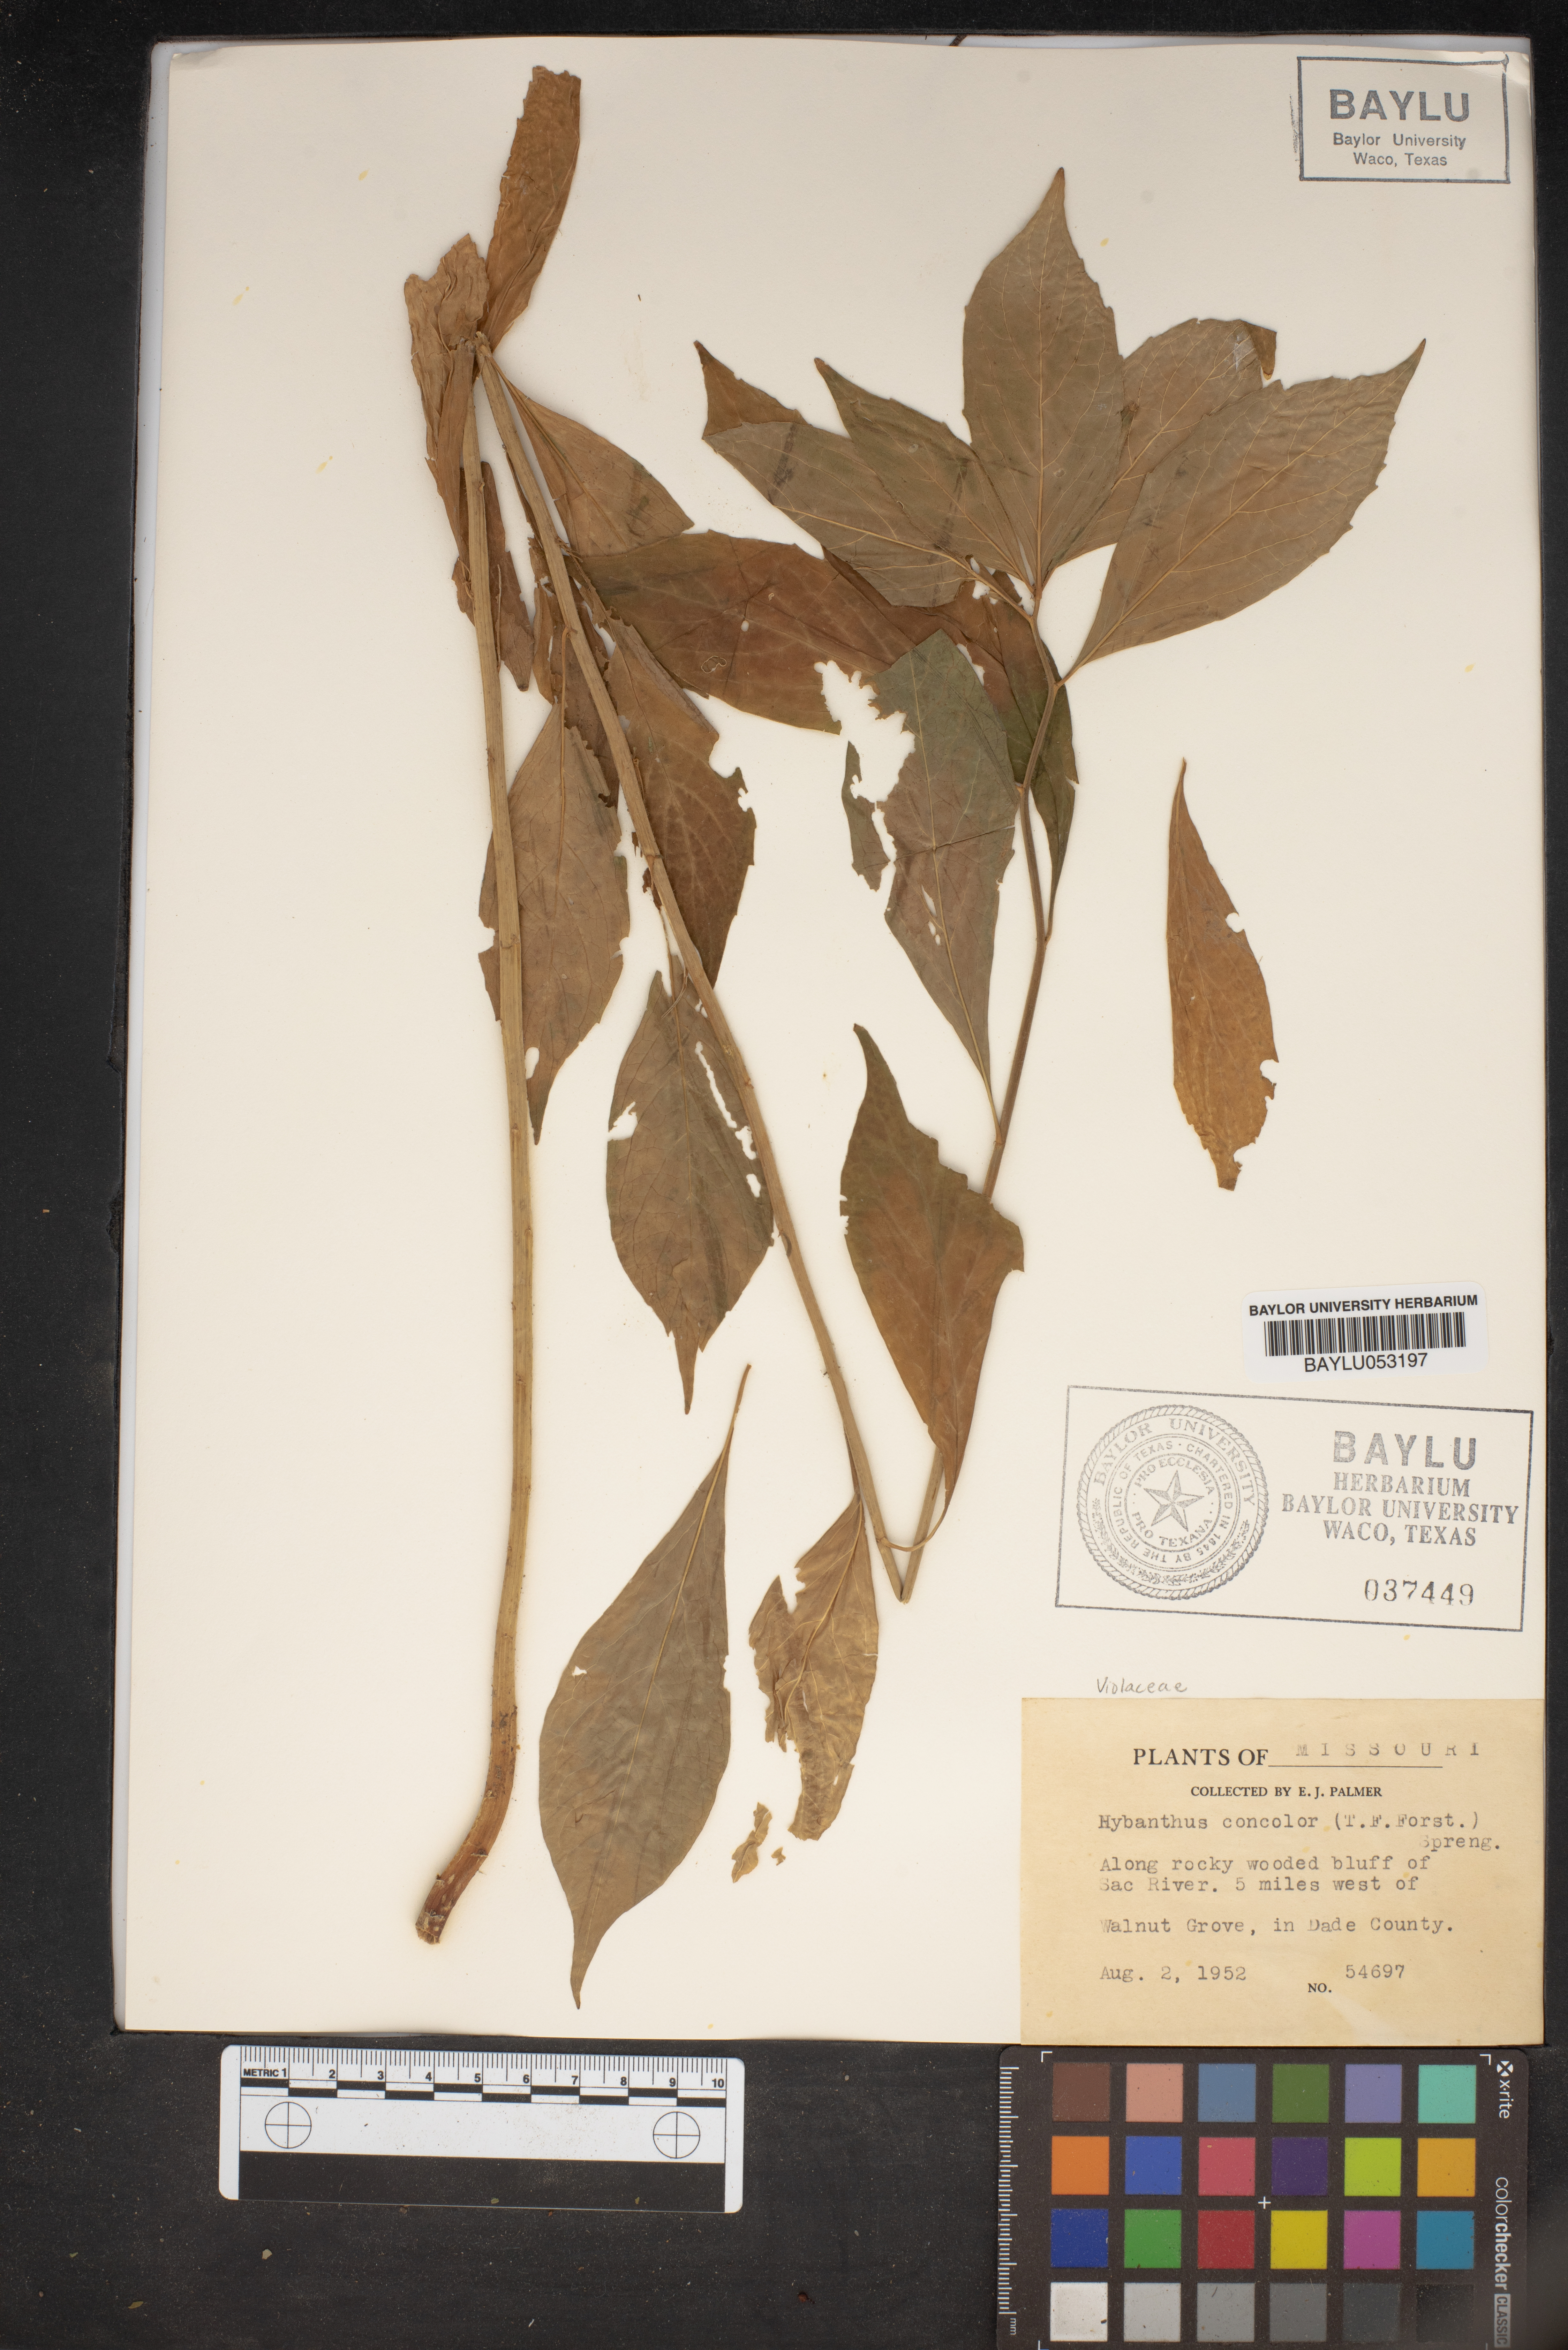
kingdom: Plantae
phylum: Tracheophyta
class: Magnoliopsida
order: Malpighiales
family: Violaceae
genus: Cubelium
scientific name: Cubelium concolor
